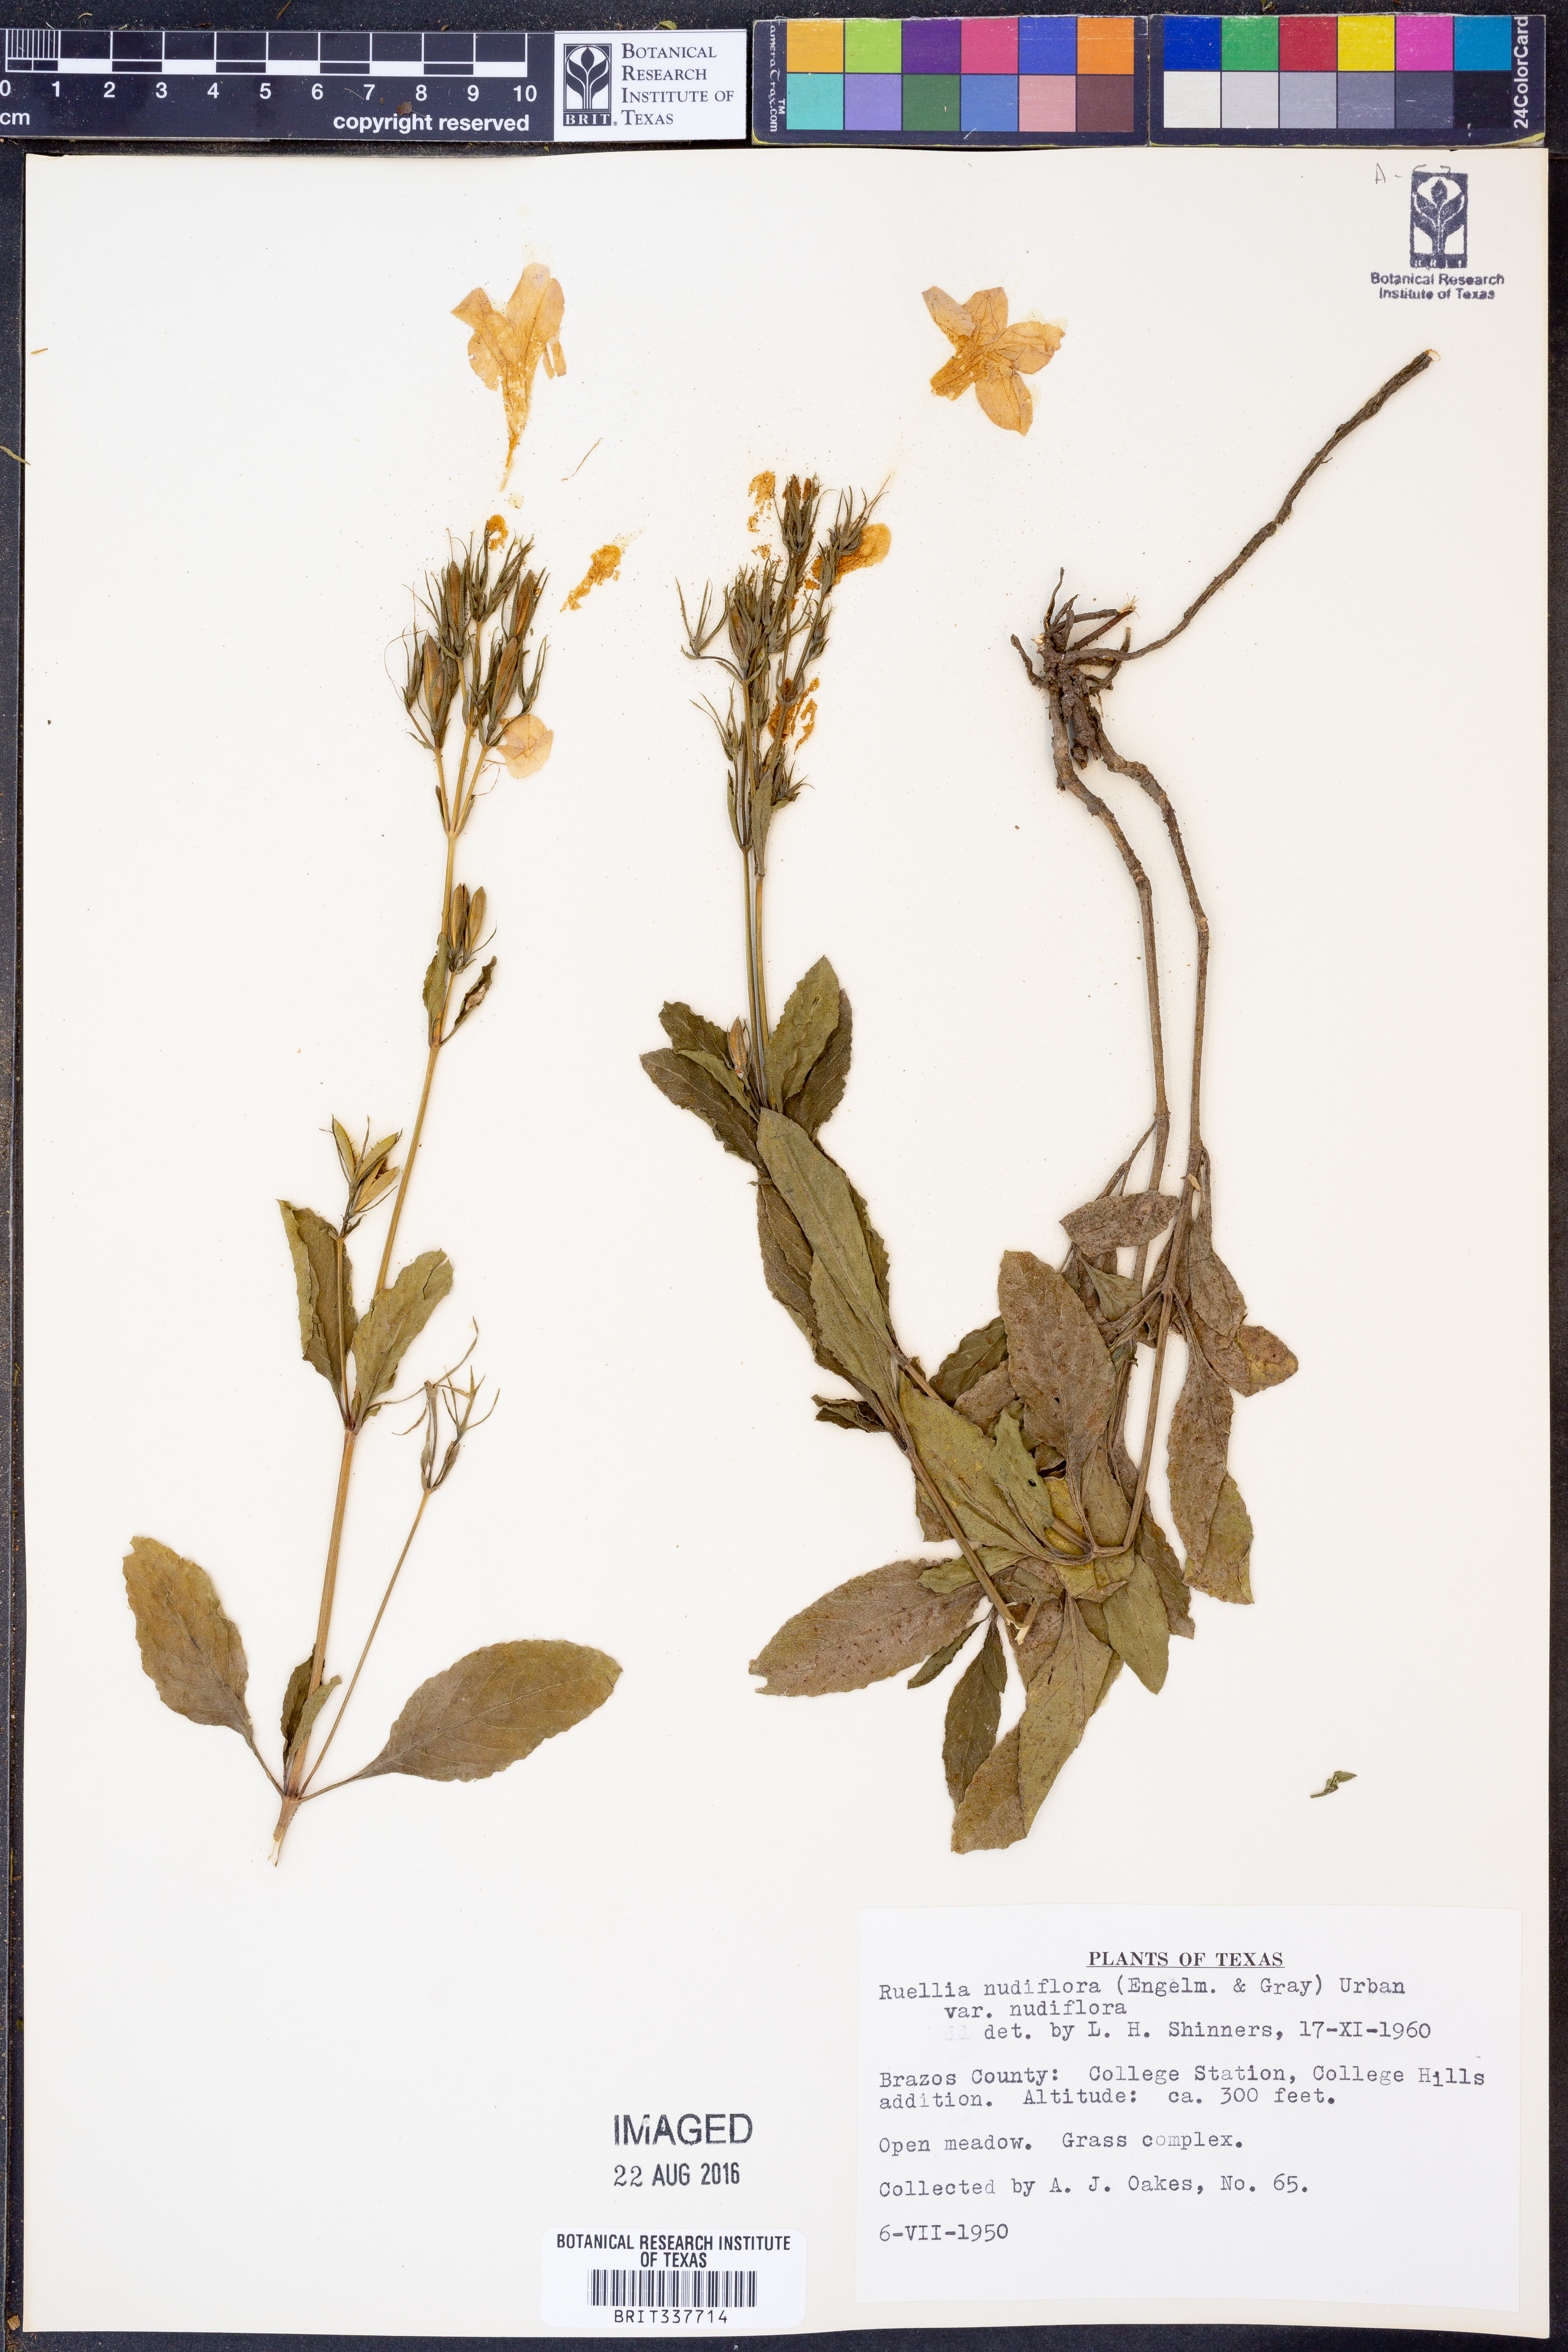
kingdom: Plantae
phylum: Tracheophyta
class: Magnoliopsida
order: Lamiales
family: Acanthaceae
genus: Ruellia
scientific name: Ruellia ciliatiflora
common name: Hairyflower wild petunia
